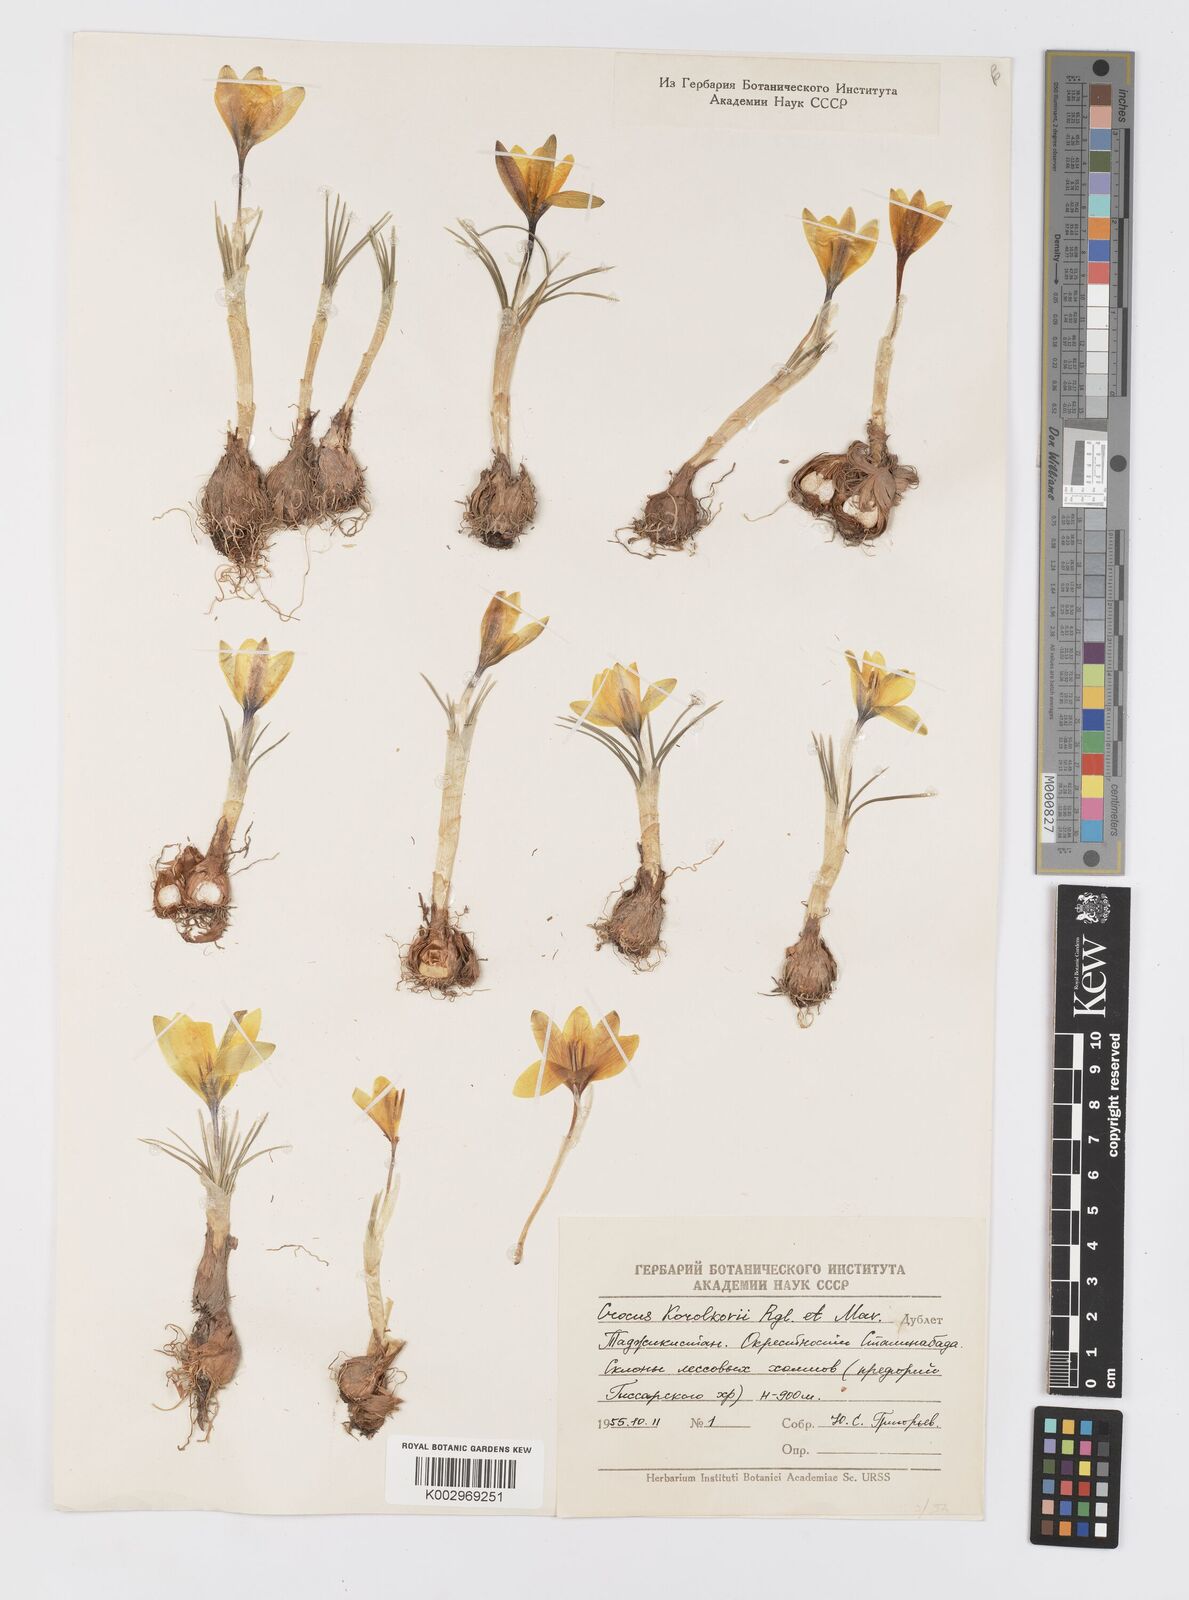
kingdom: Plantae
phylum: Tracheophyta
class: Liliopsida
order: Asparagales
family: Iridaceae
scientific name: Iridaceae
